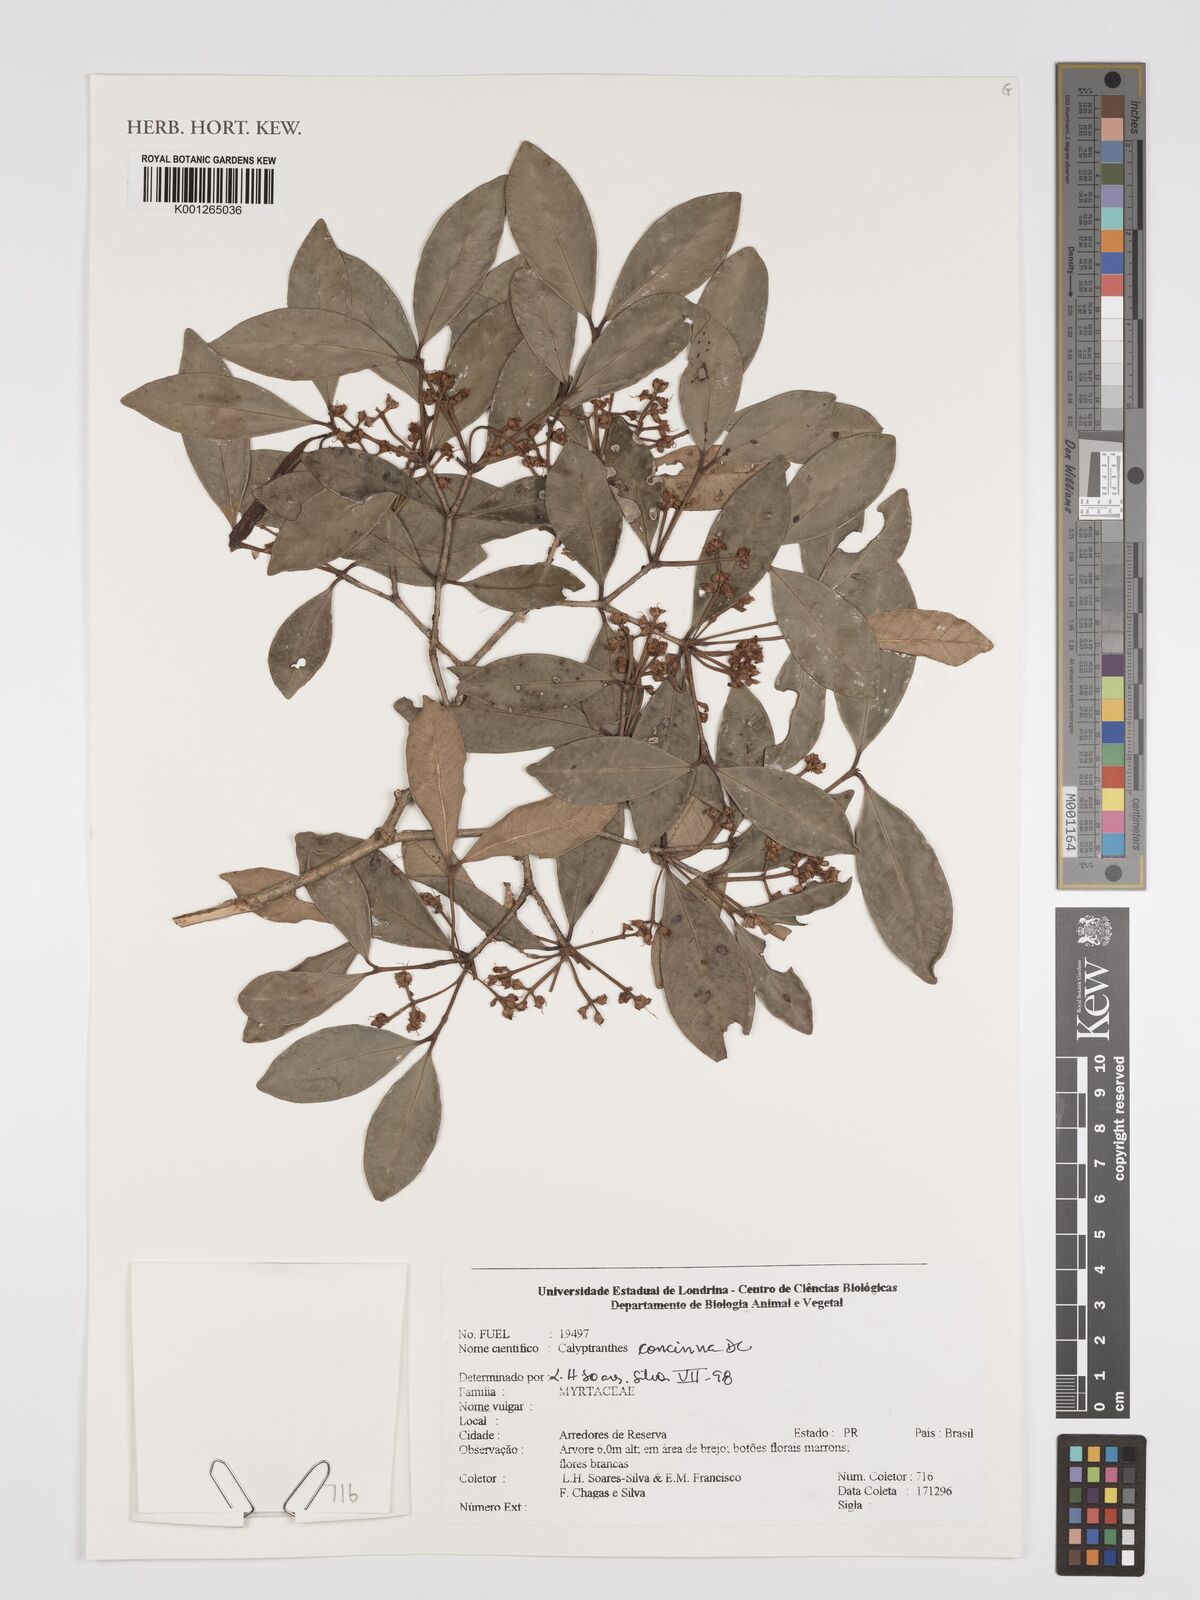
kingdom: Plantae
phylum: Tracheophyta
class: Magnoliopsida
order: Myrtales
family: Myrtaceae
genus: Myrcia
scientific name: Myrcia cruciflora
